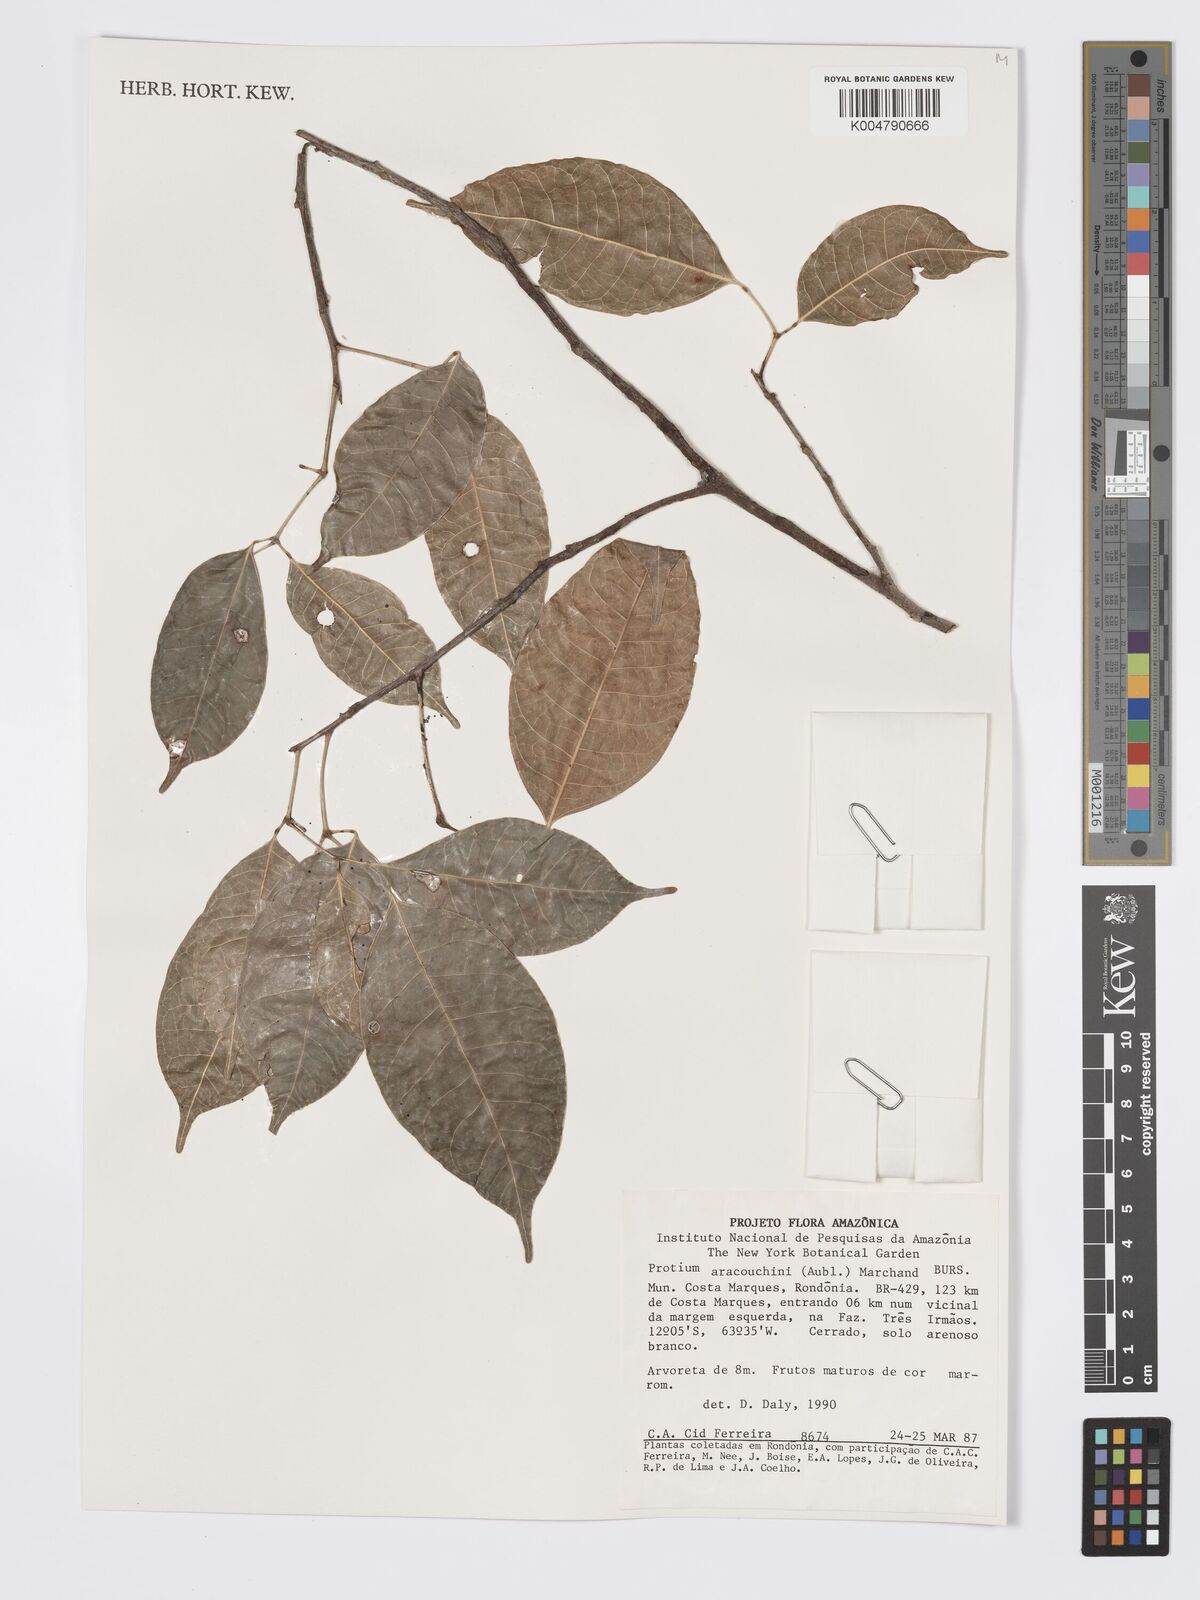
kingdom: Plantae
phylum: Tracheophyta
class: Magnoliopsida
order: Sapindales
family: Burseraceae
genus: Protium
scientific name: Protium aracouchini
